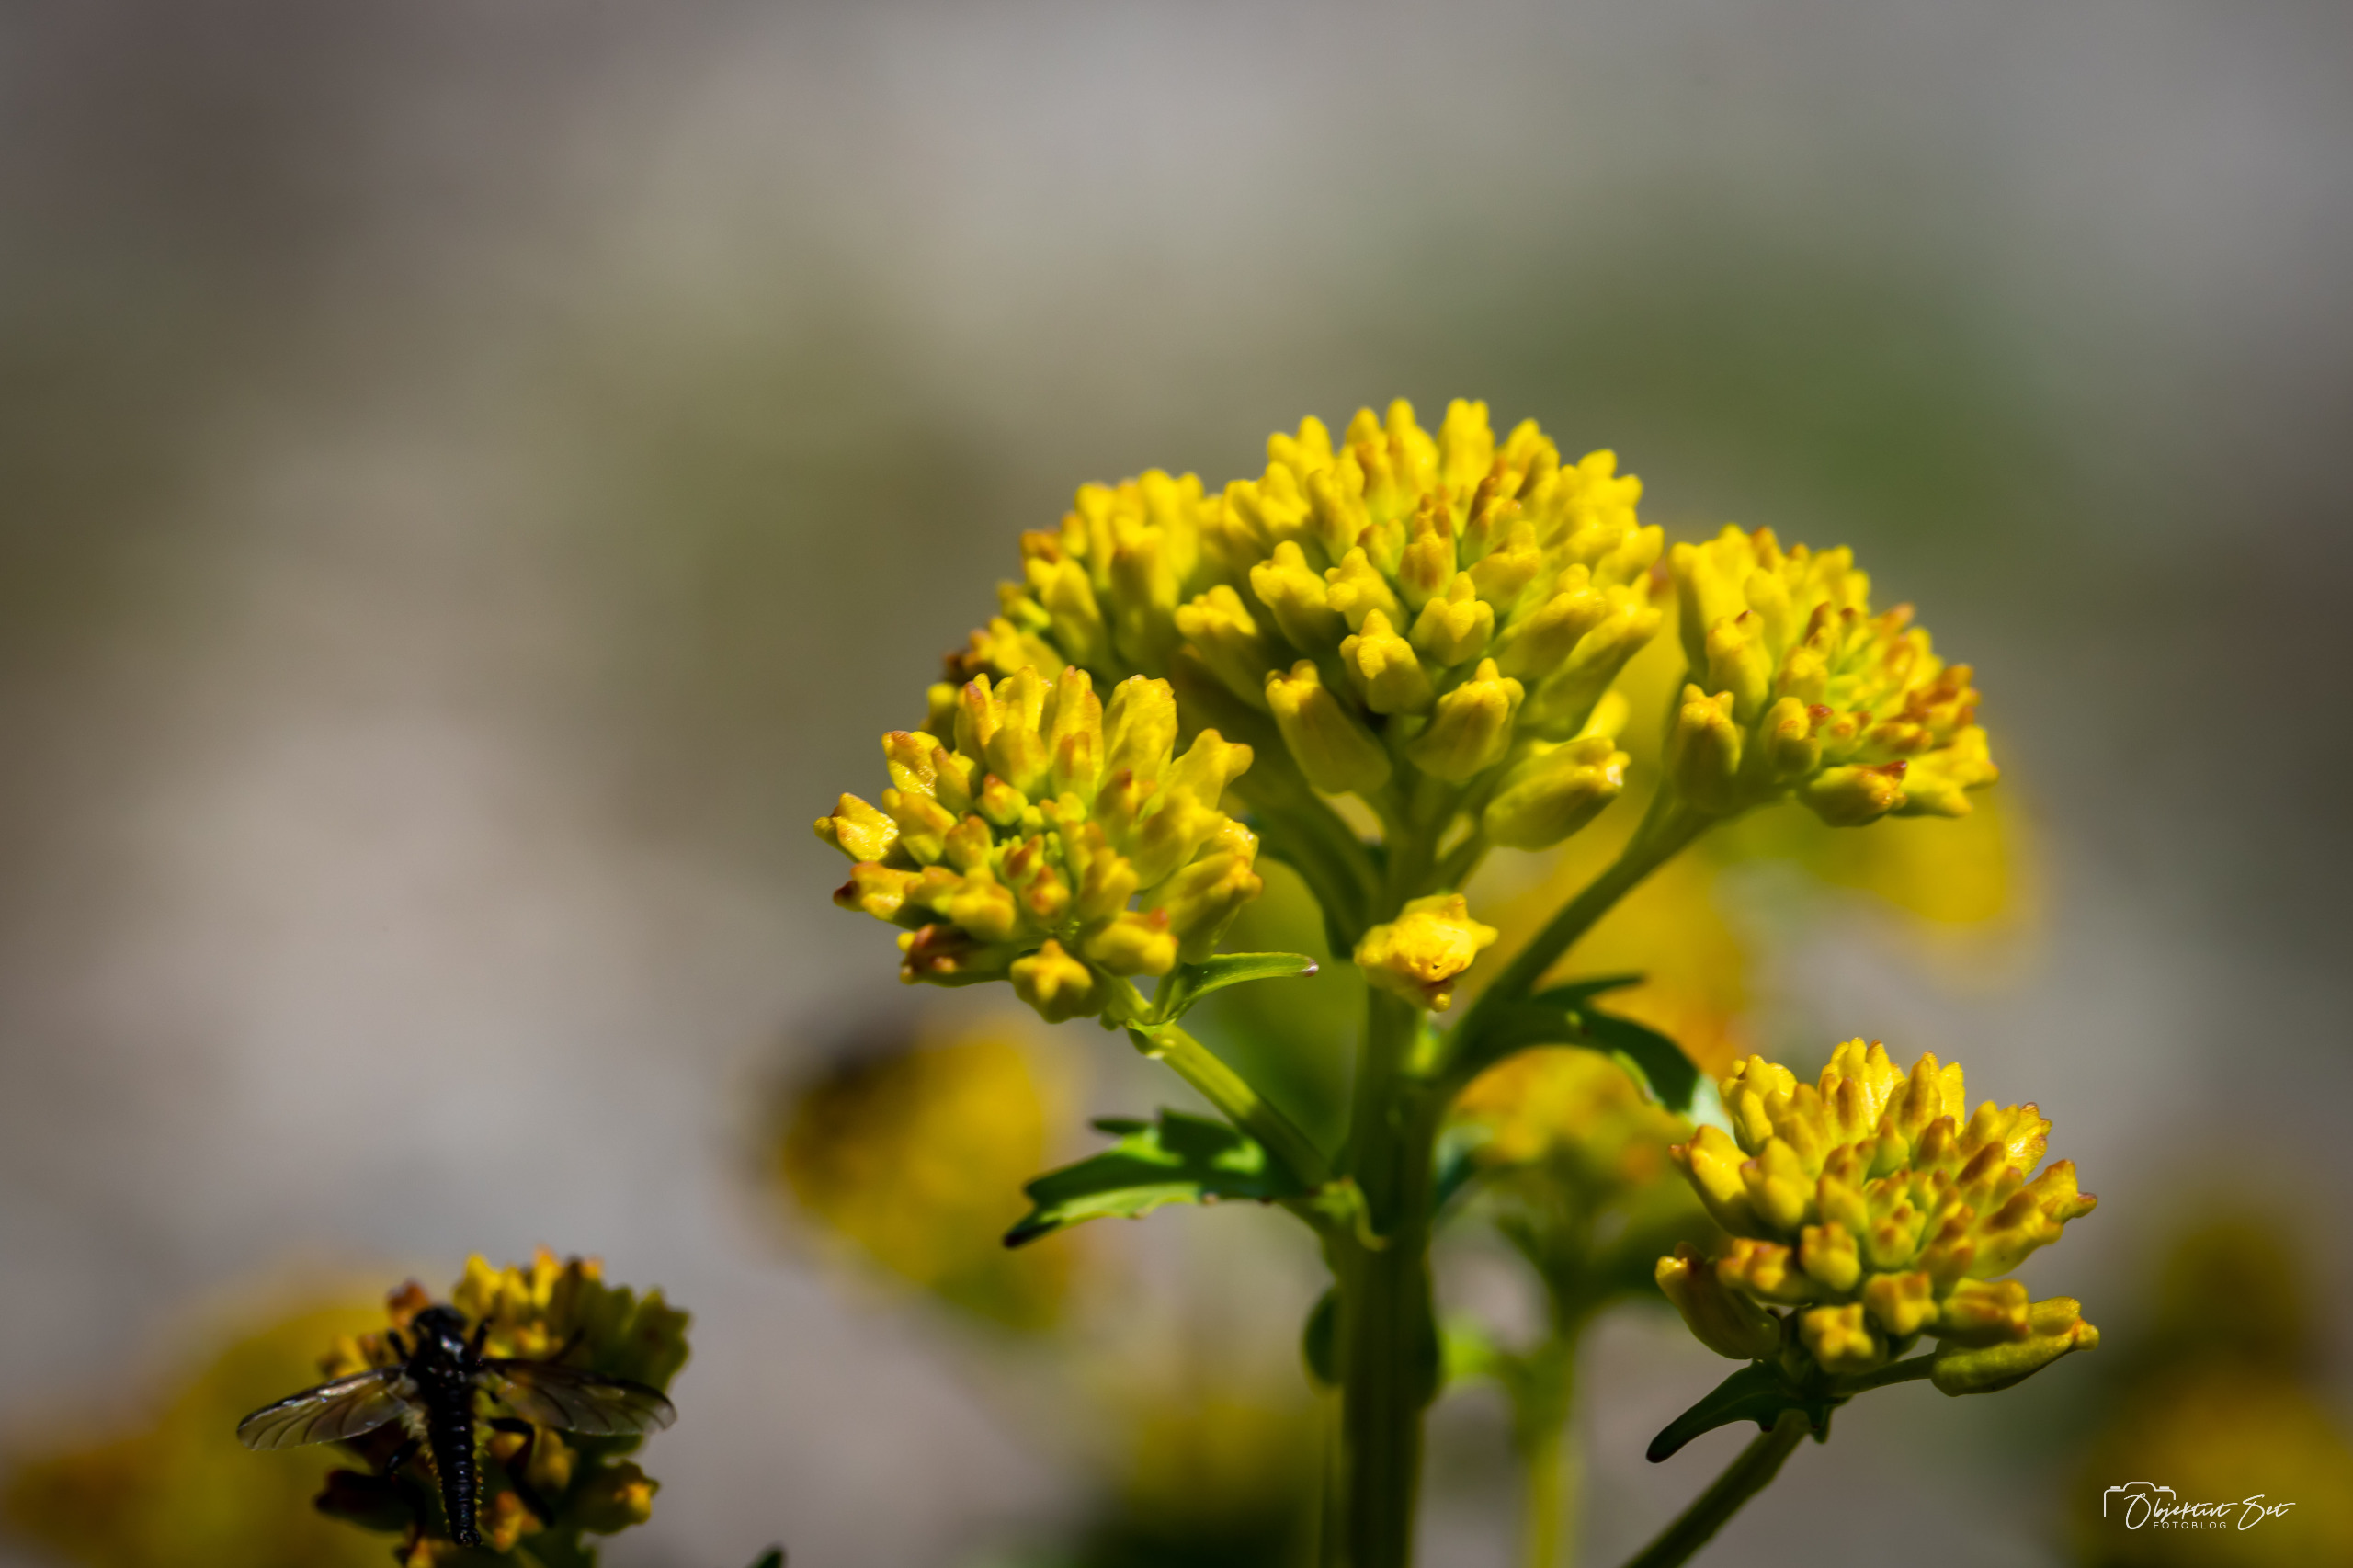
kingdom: Plantae
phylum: Tracheophyta
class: Magnoliopsida
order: Brassicales
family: Brassicaceae
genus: Barbarea
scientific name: Barbarea vulgaris
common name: Almindelig vinterkarse
